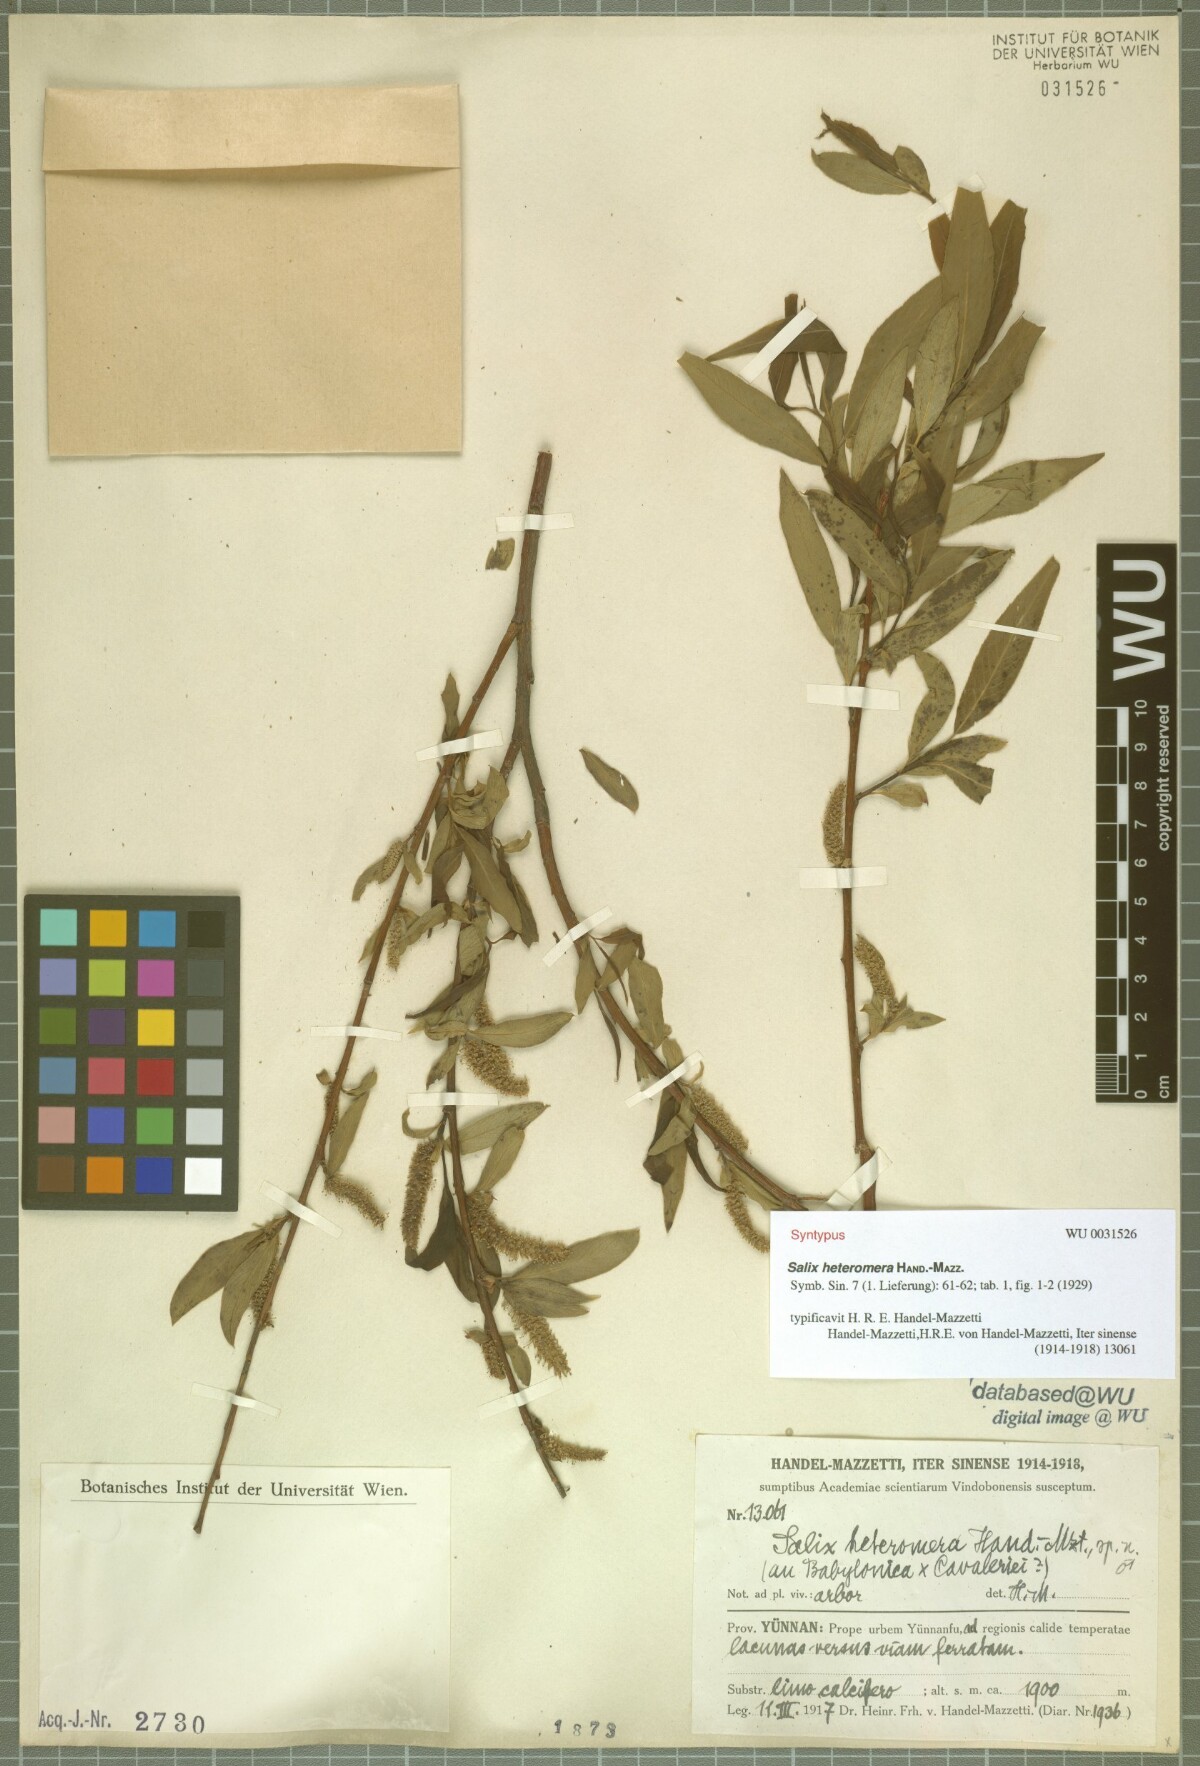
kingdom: Plantae
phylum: Tracheophyta
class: Magnoliopsida
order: Malpighiales
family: Salicaceae
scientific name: Salicaceae
